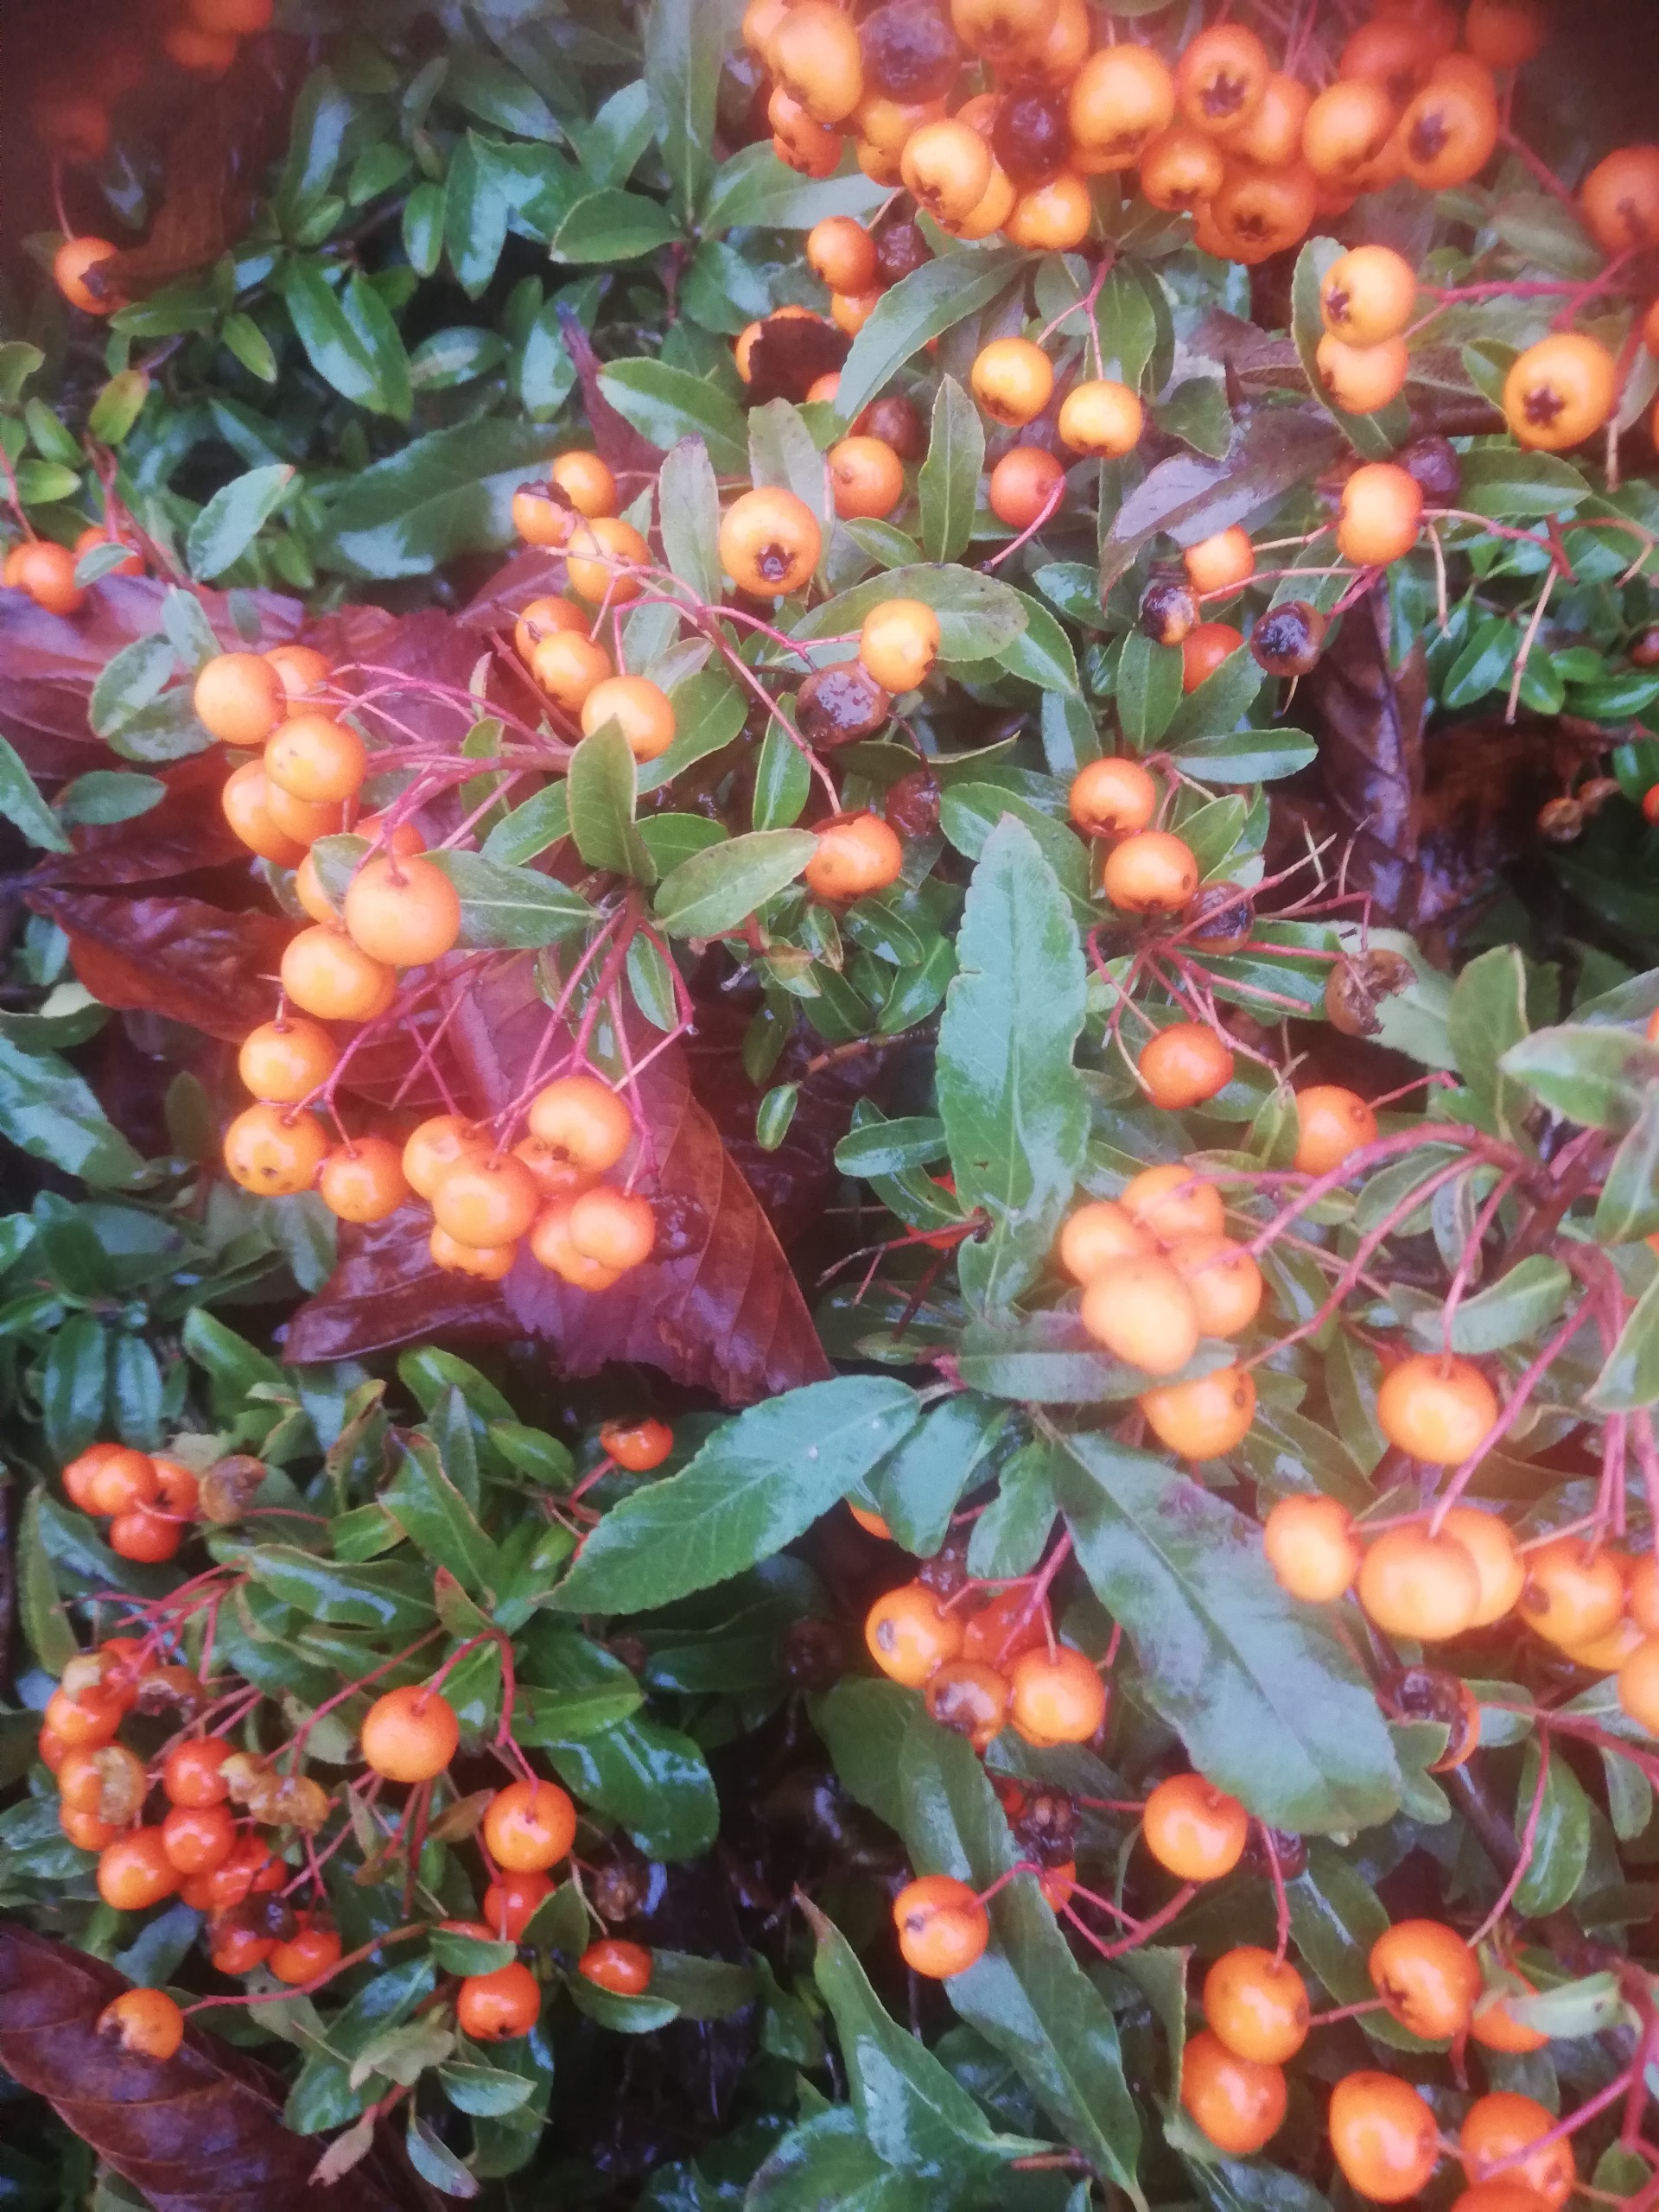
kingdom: Plantae
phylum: Tracheophyta
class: Magnoliopsida
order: Rosales
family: Rosaceae
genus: Pyracantha
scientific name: Pyracantha crenulata
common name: Orangegul ildtorn
